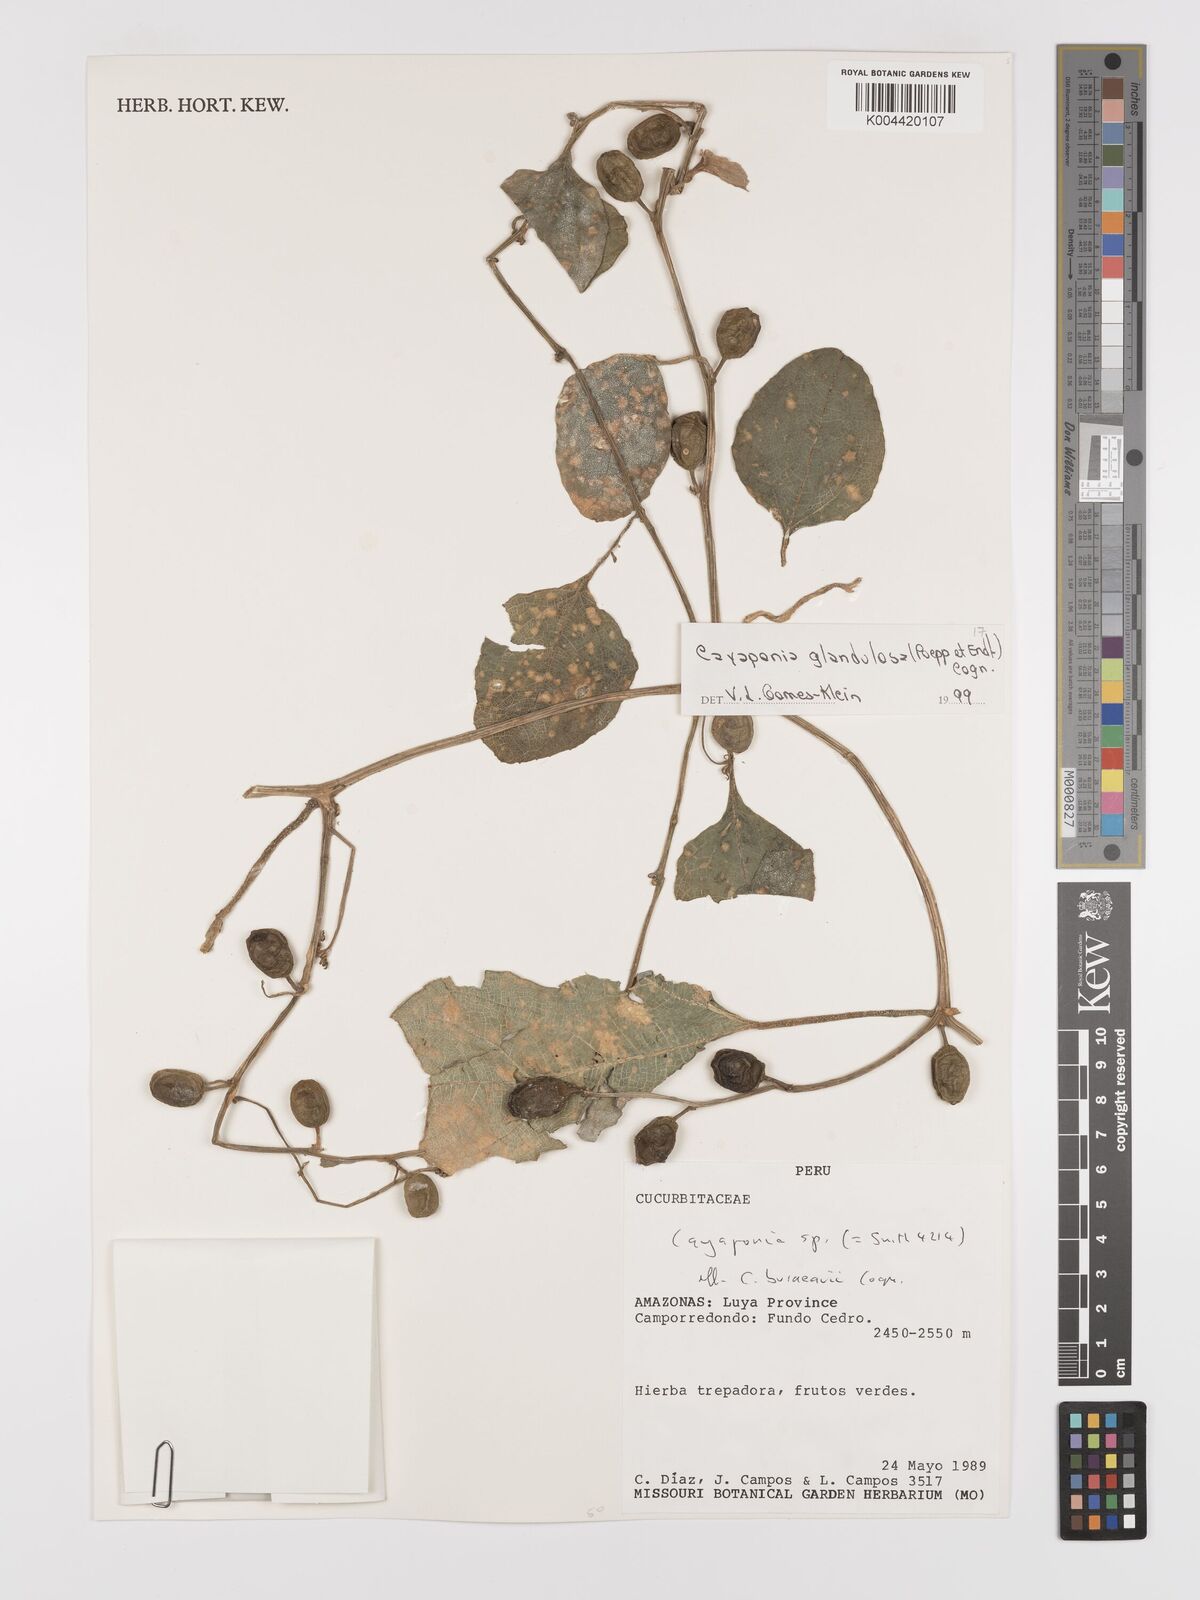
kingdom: Plantae
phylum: Tracheophyta
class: Magnoliopsida
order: Cucurbitales
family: Cucurbitaceae
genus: Cayaponia
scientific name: Cayaponia glandulosa
